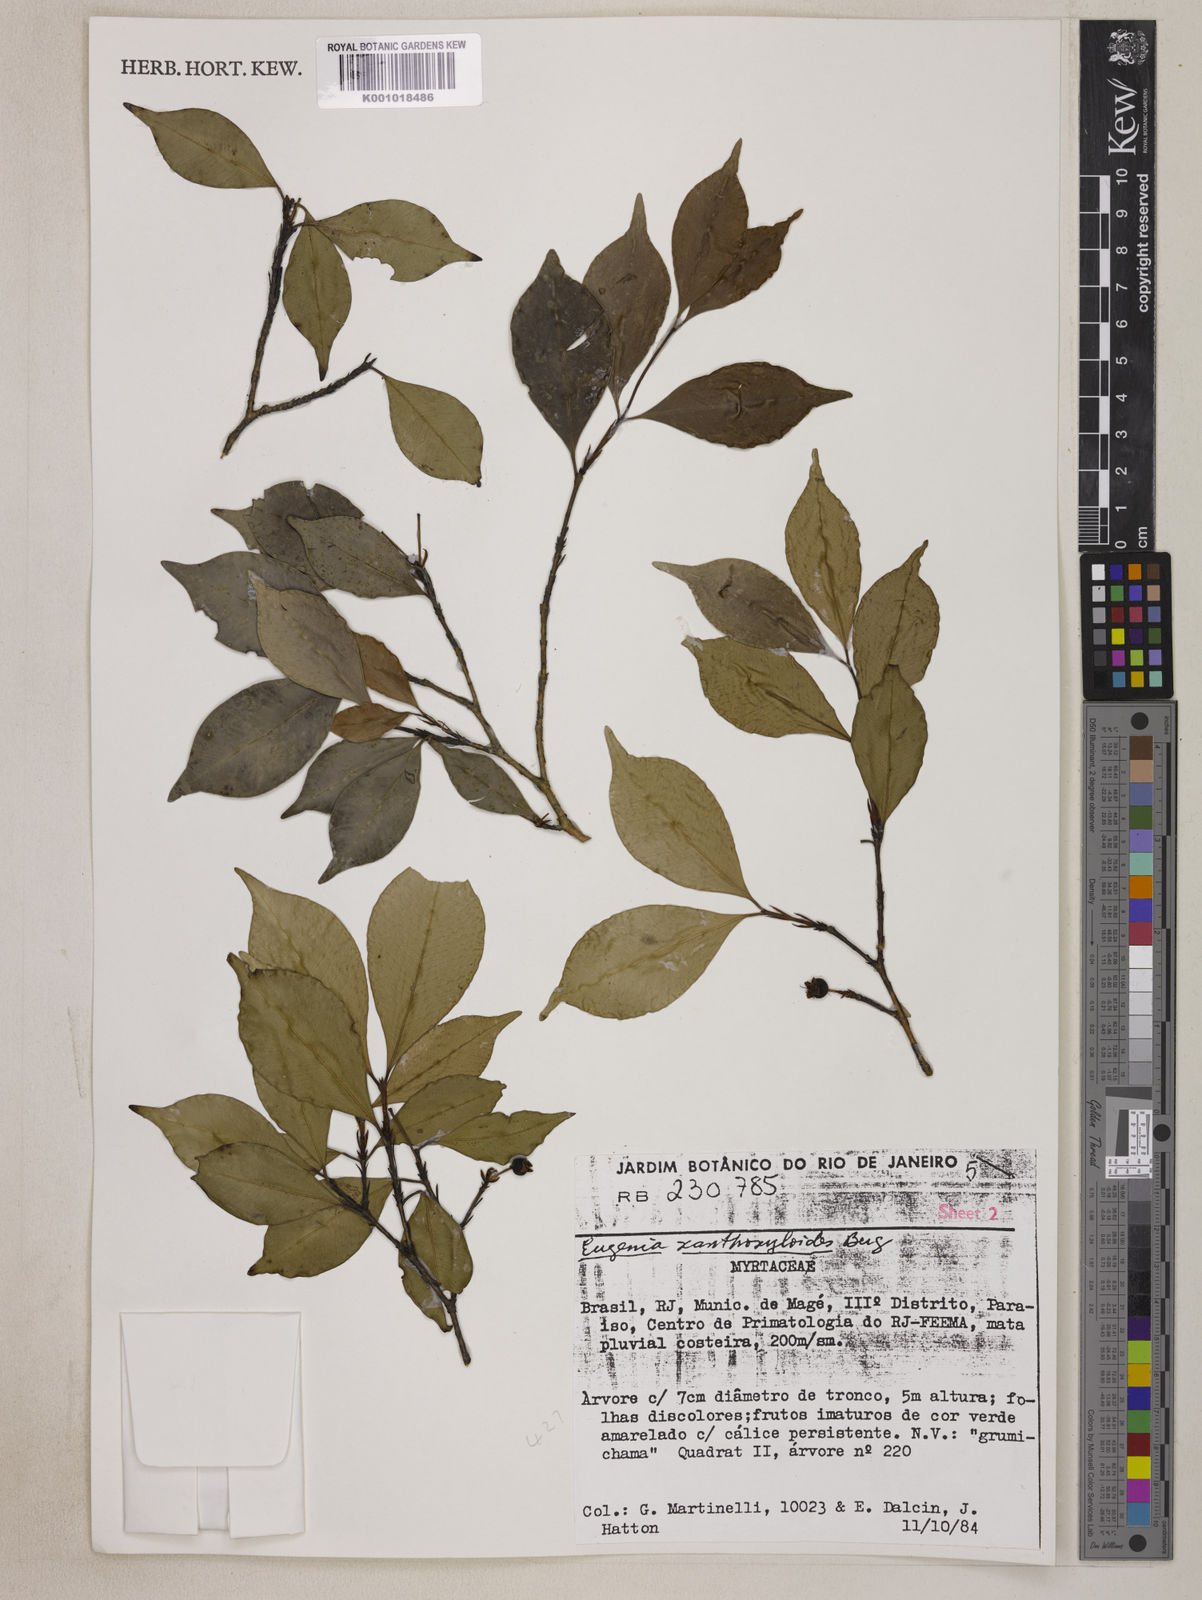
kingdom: Plantae
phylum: Tracheophyta
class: Magnoliopsida
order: Myrtales
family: Myrtaceae
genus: Eugenia
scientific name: Eugenia xanthoxyloides
